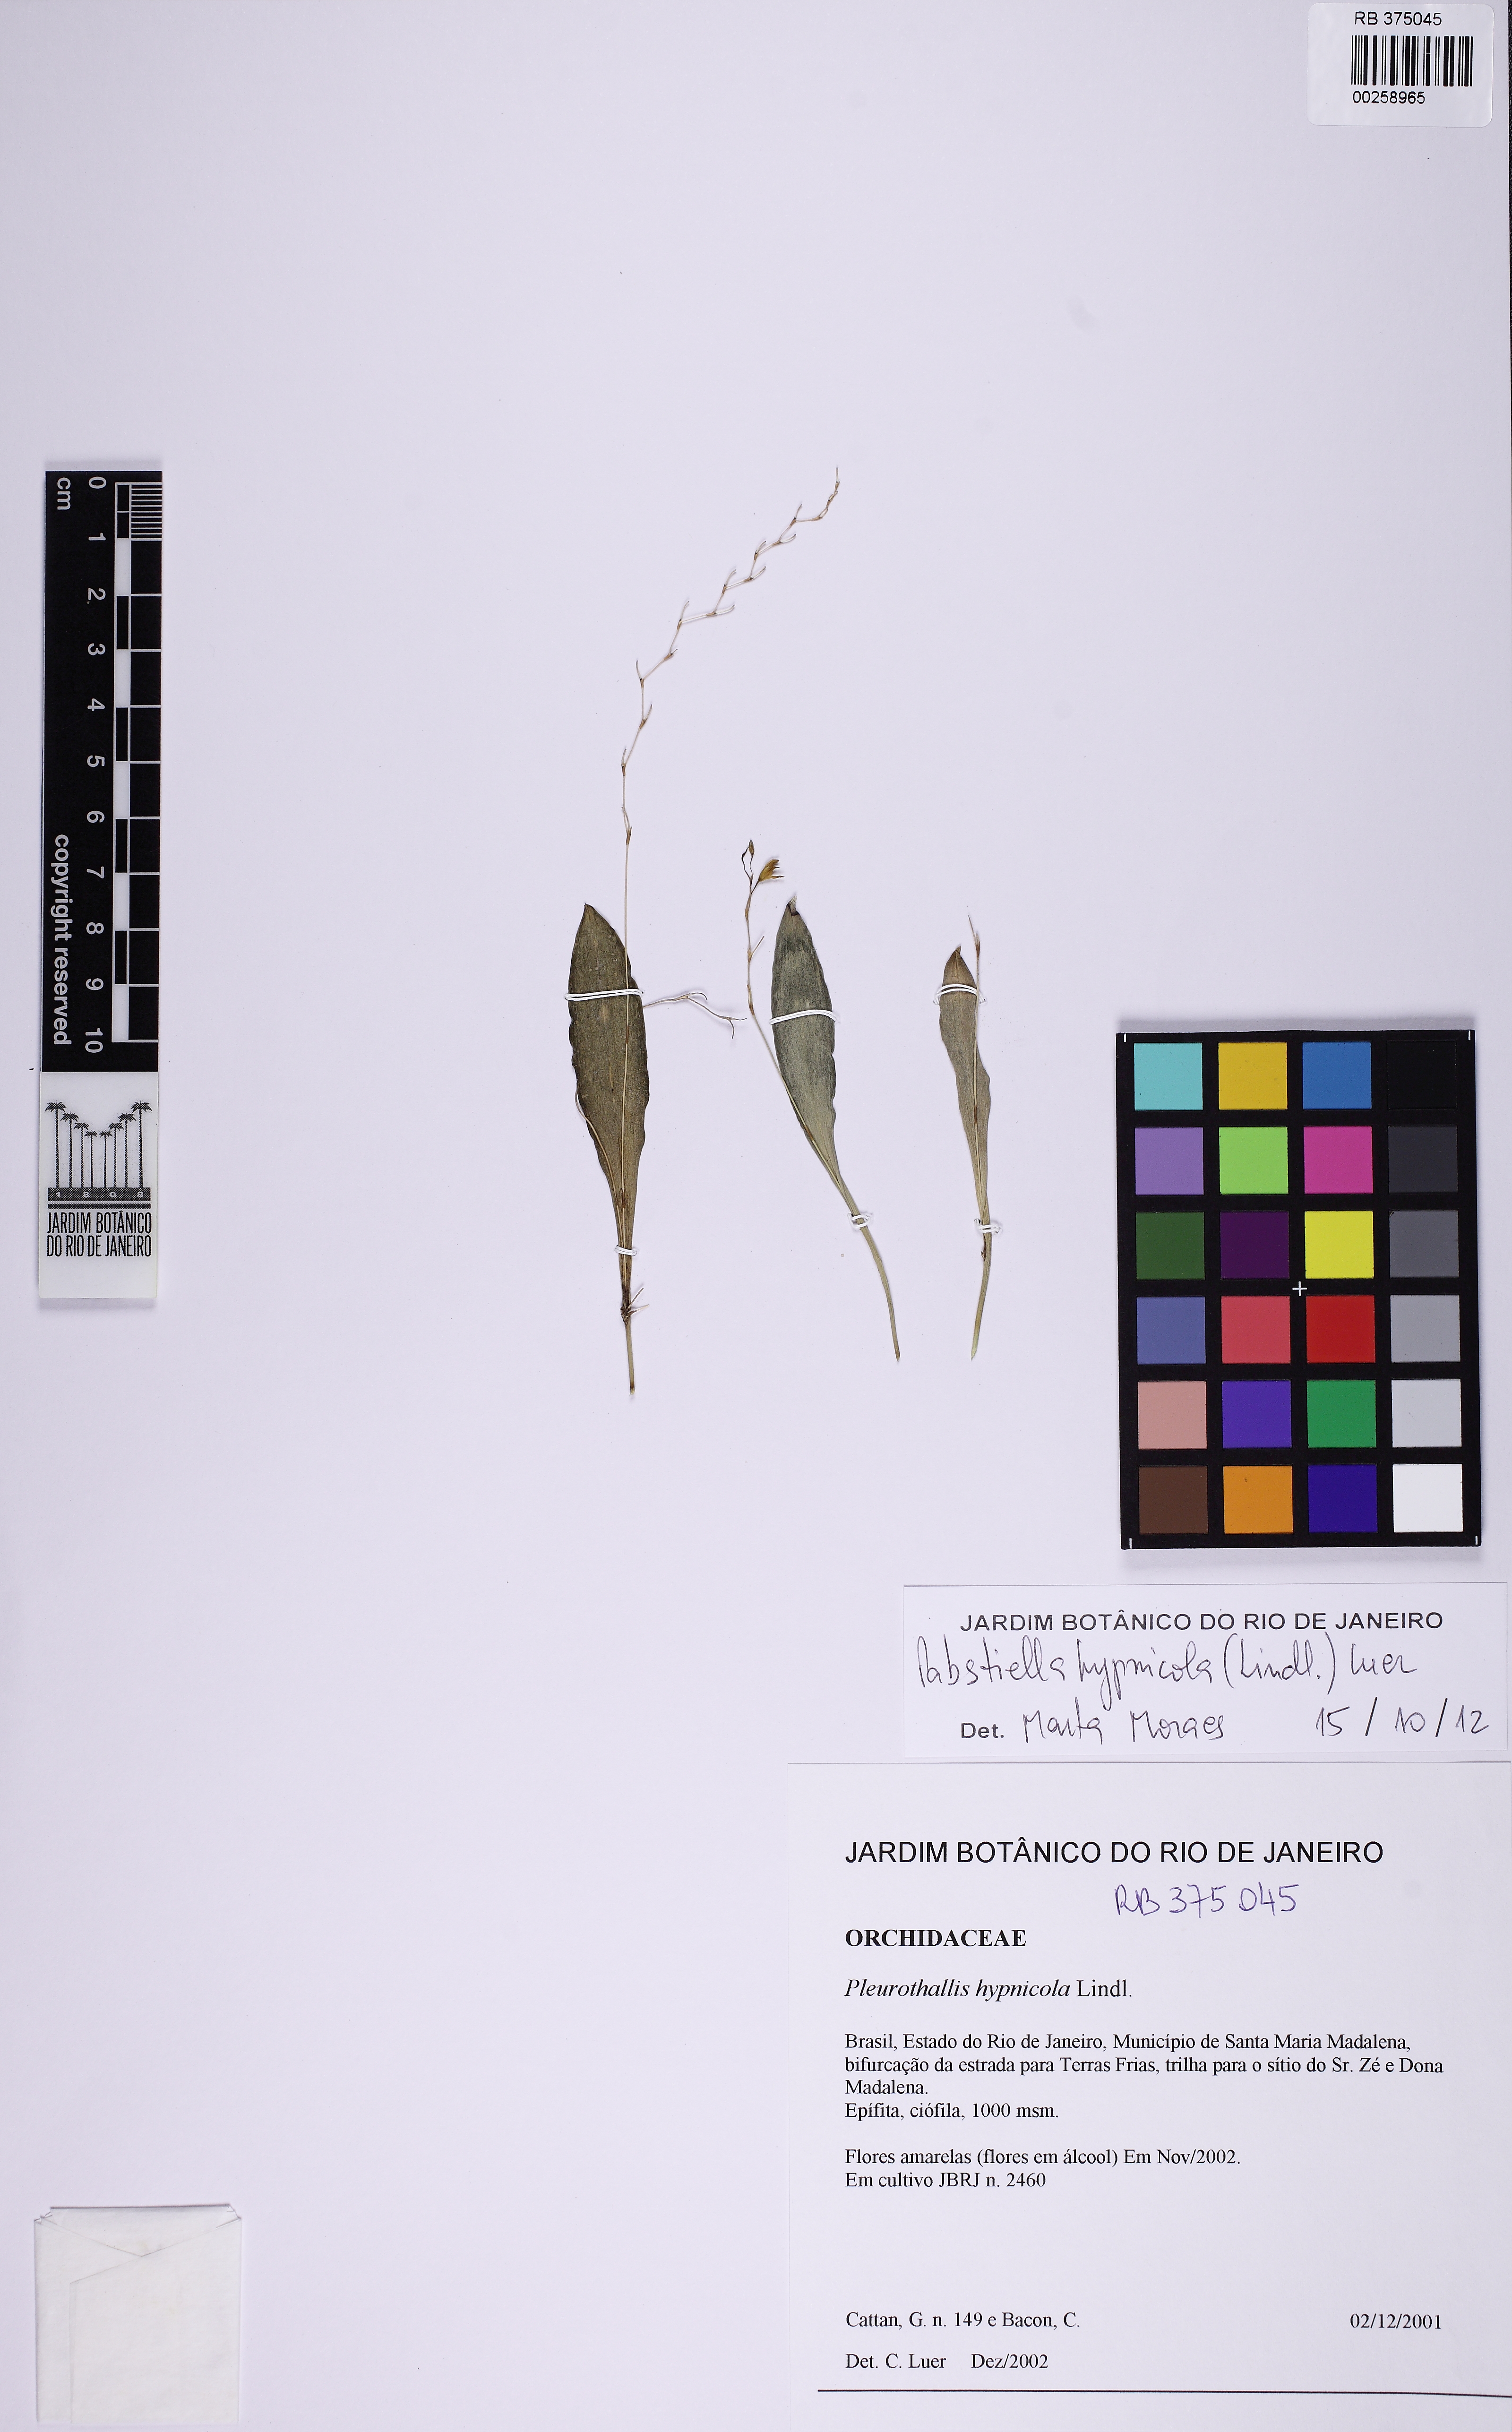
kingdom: Plantae
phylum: Tracheophyta
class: Liliopsida
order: Asparagales
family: Orchidaceae
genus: Pabstiella
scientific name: Pabstiella fusca
